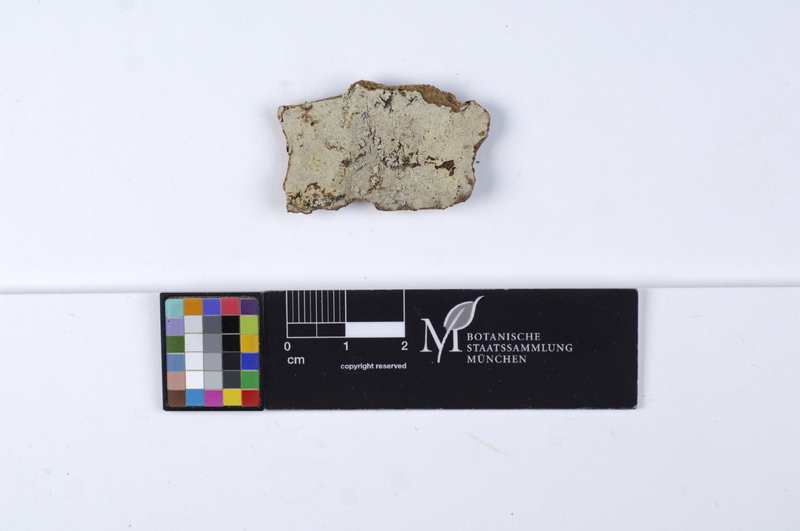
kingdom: Fungi
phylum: Basidiomycota
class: Agaricomycetes
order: Russulales
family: Russulaceae
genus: Boidinia
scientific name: Boidinia furfuracea
